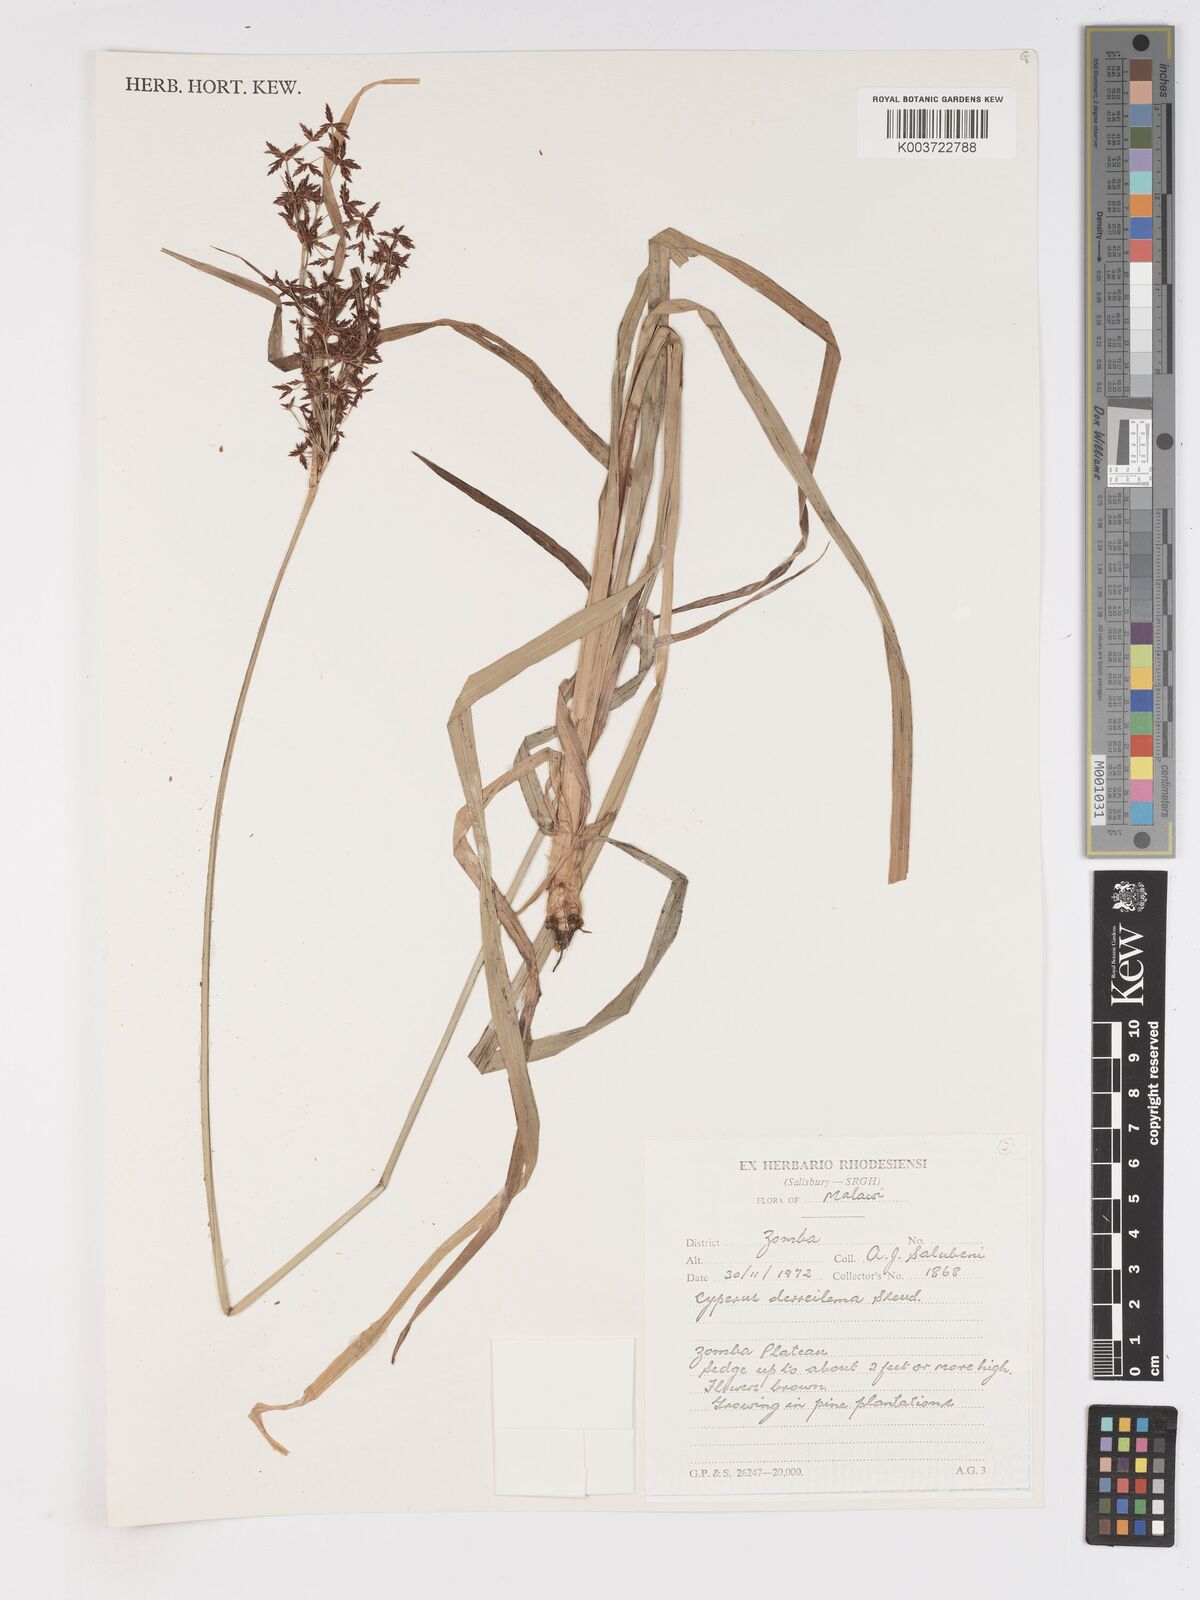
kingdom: Plantae
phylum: Tracheophyta
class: Liliopsida
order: Poales
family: Cyperaceae
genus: Cyperus
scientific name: Cyperus derreilema
